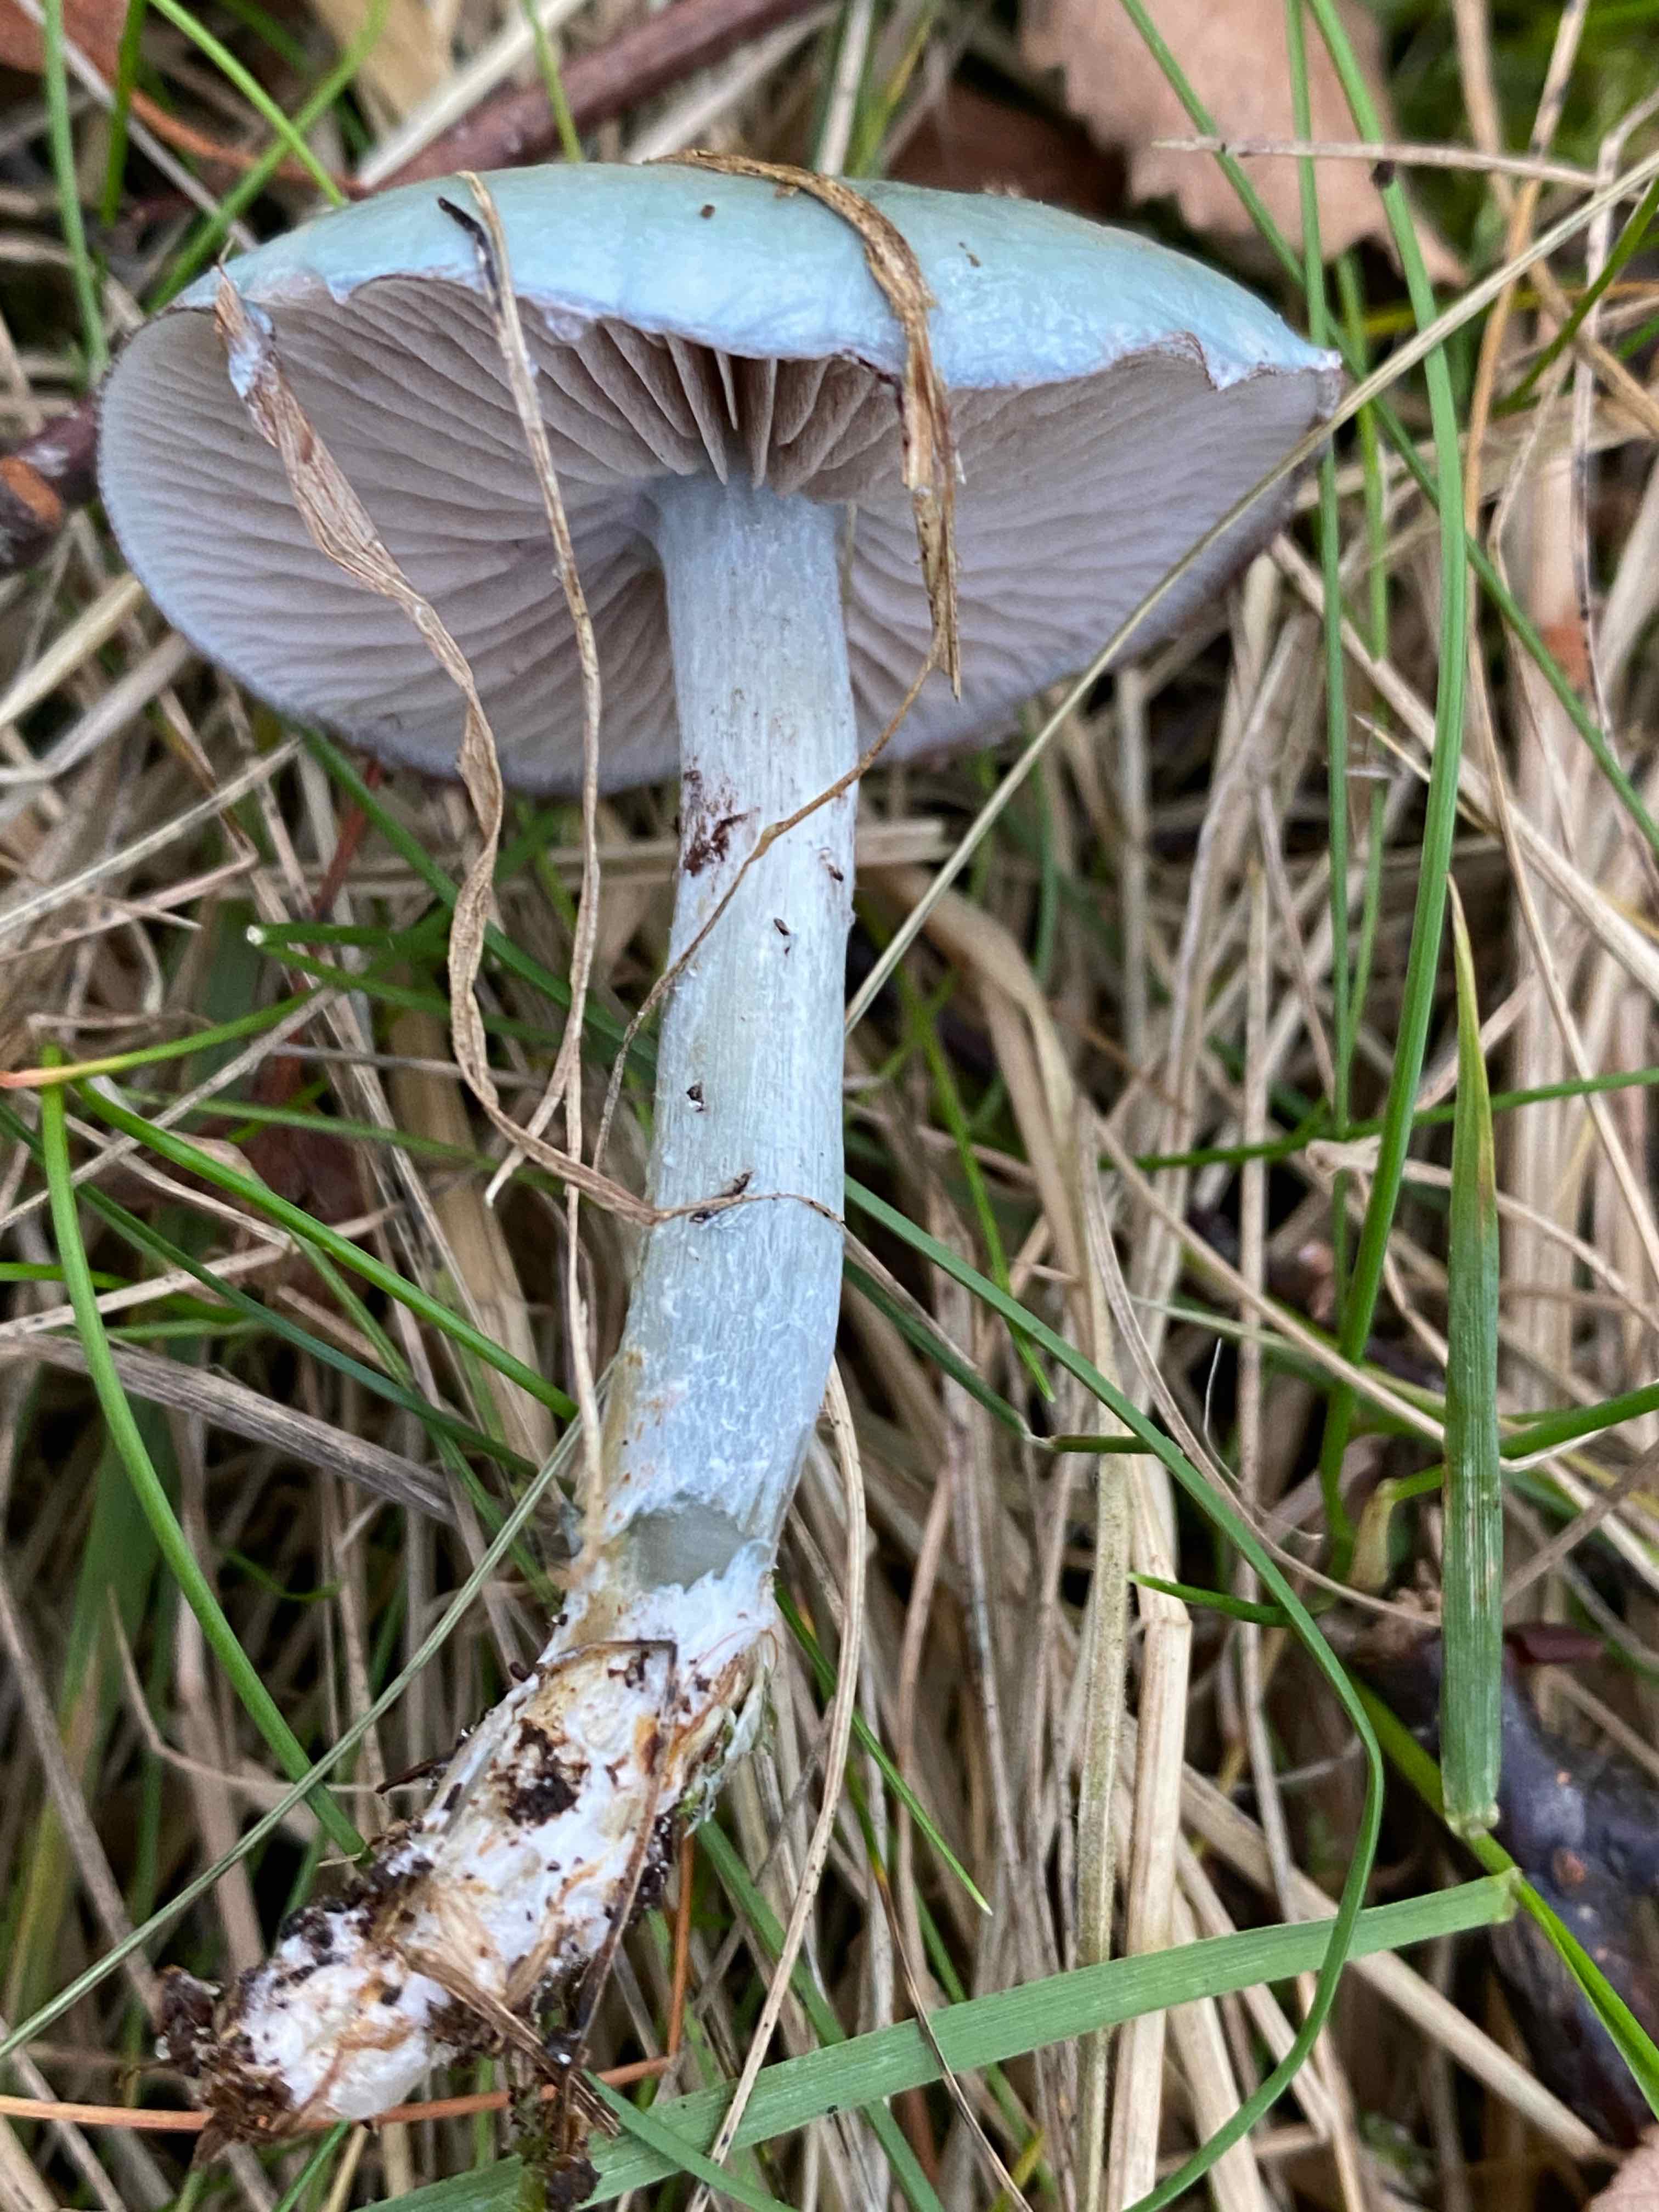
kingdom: Fungi
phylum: Basidiomycota
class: Agaricomycetes
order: Agaricales
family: Strophariaceae
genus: Stropharia
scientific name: Stropharia cyanea
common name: blågrøn bredblad
